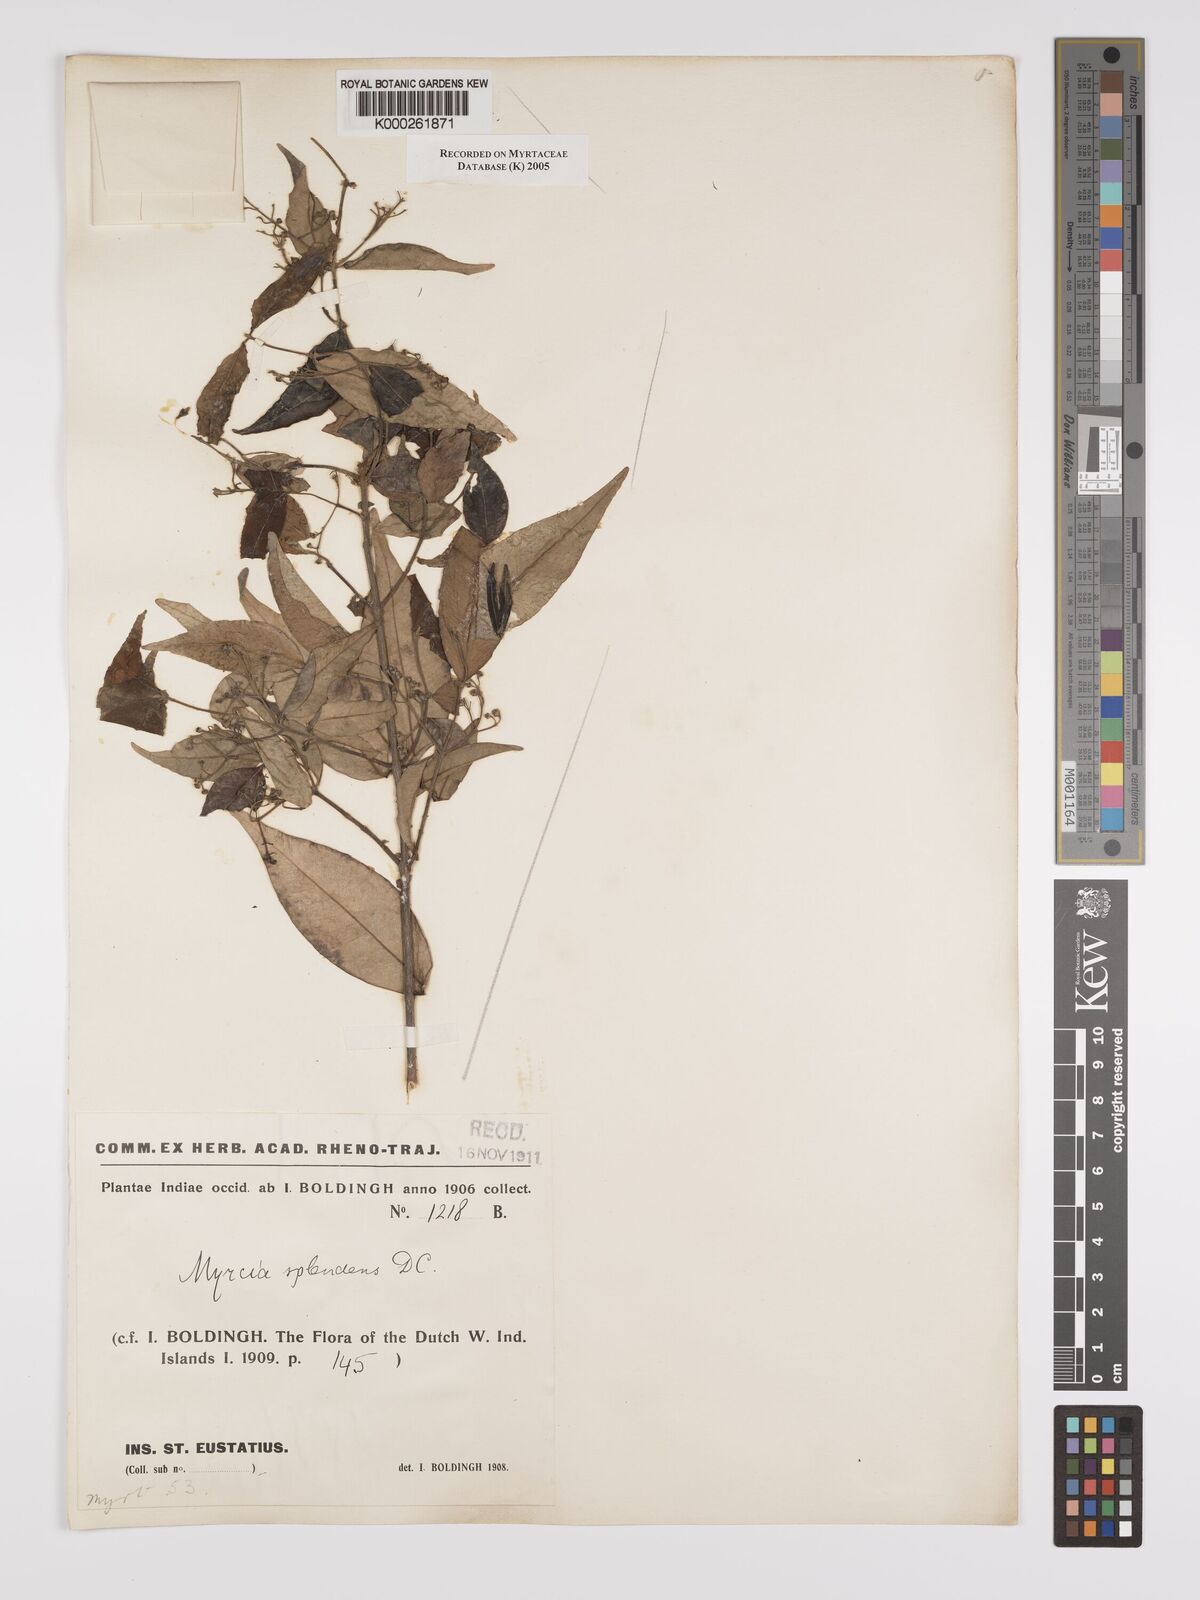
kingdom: Plantae
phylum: Tracheophyta
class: Magnoliopsida
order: Myrtales
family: Myrtaceae
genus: Myrcia
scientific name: Myrcia splendens
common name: Surinam cherry
